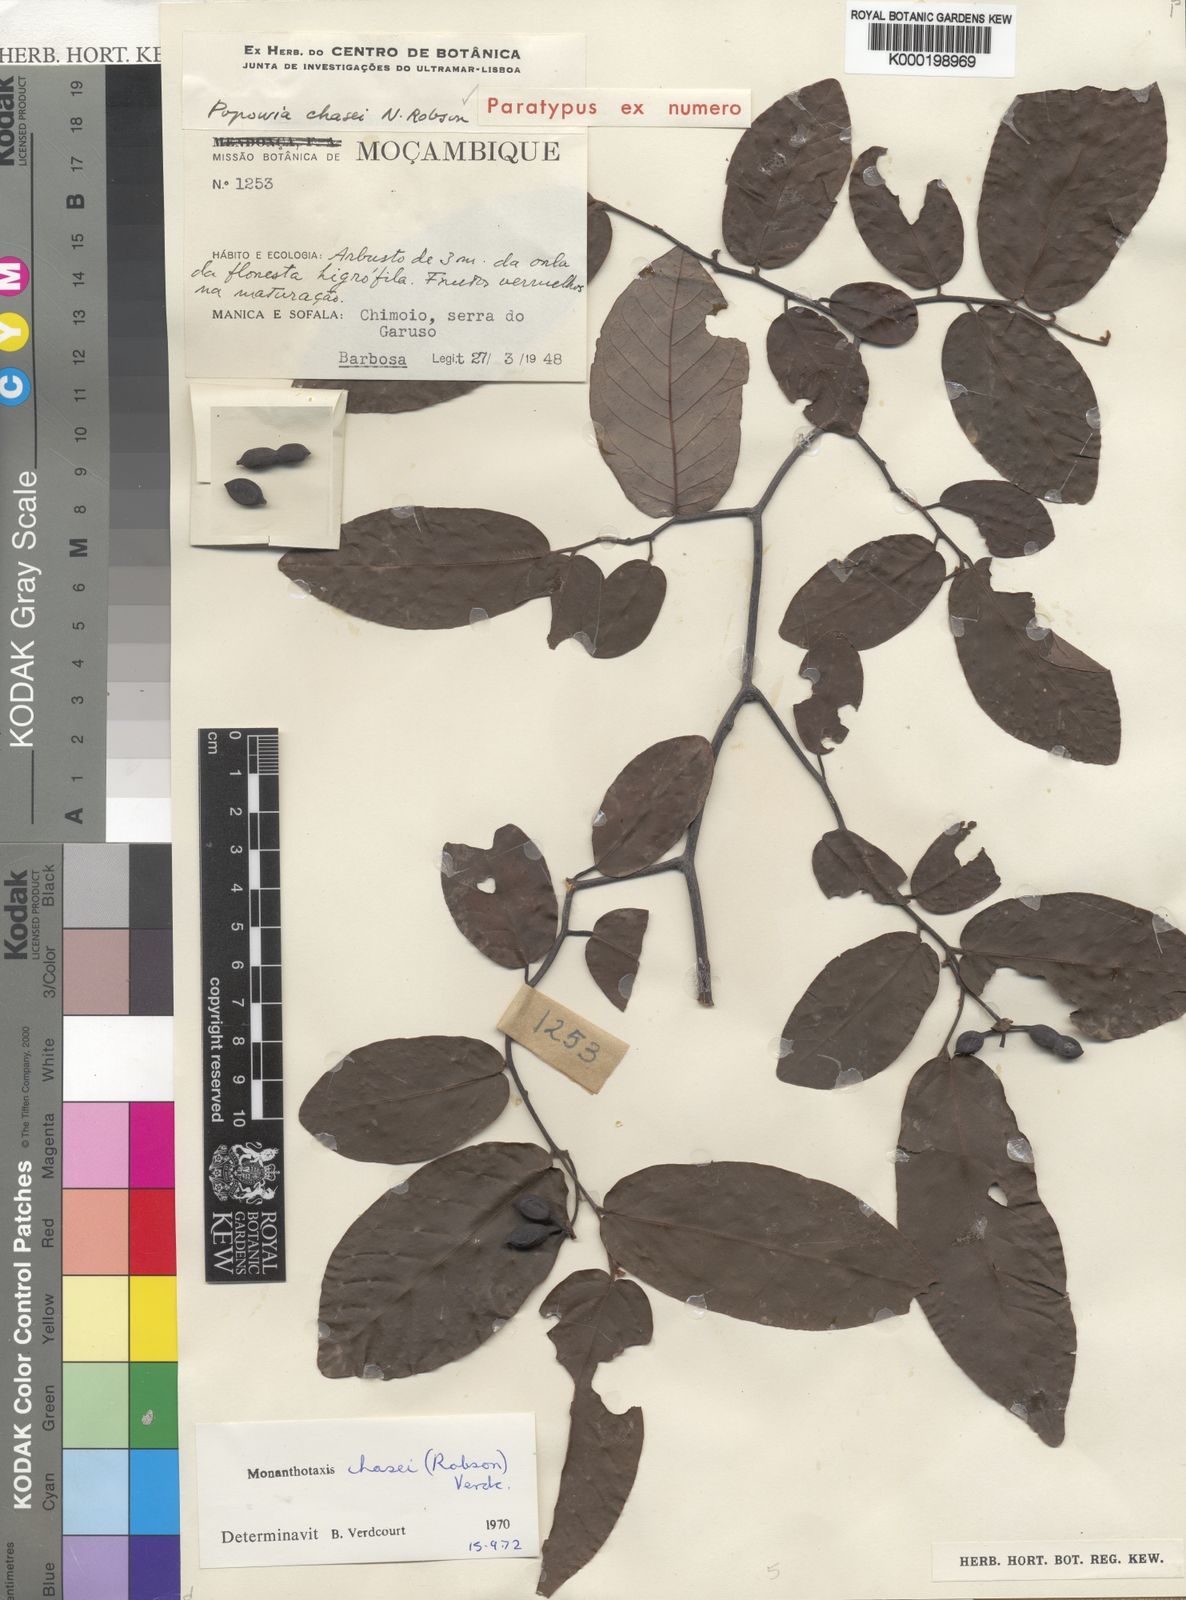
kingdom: Plantae
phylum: Tracheophyta
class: Magnoliopsida
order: Magnoliales
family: Annonaceae
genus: Monanthotaxis
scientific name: Monanthotaxis chasei
